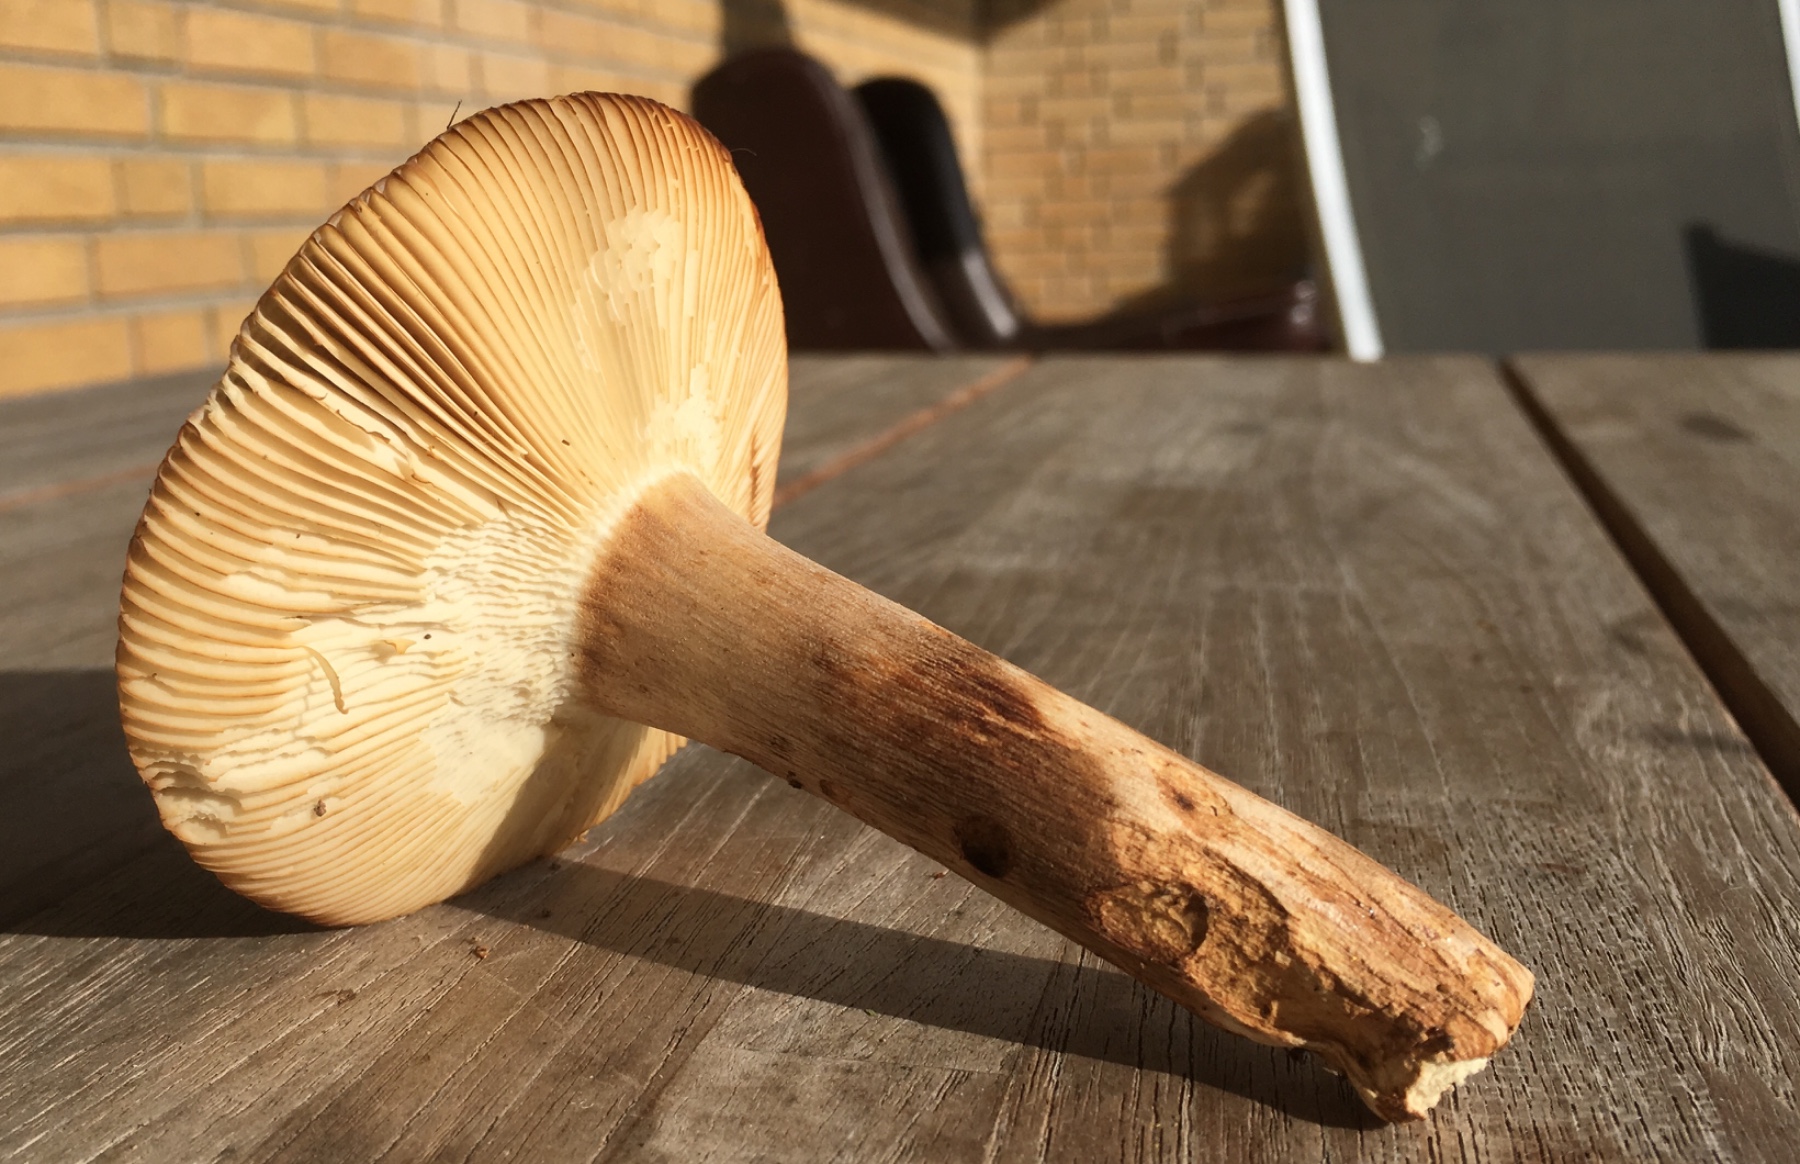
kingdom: Fungi
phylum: Basidiomycota
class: Agaricomycetes
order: Russulales
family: Russulaceae
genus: Russula
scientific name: Russula grata
